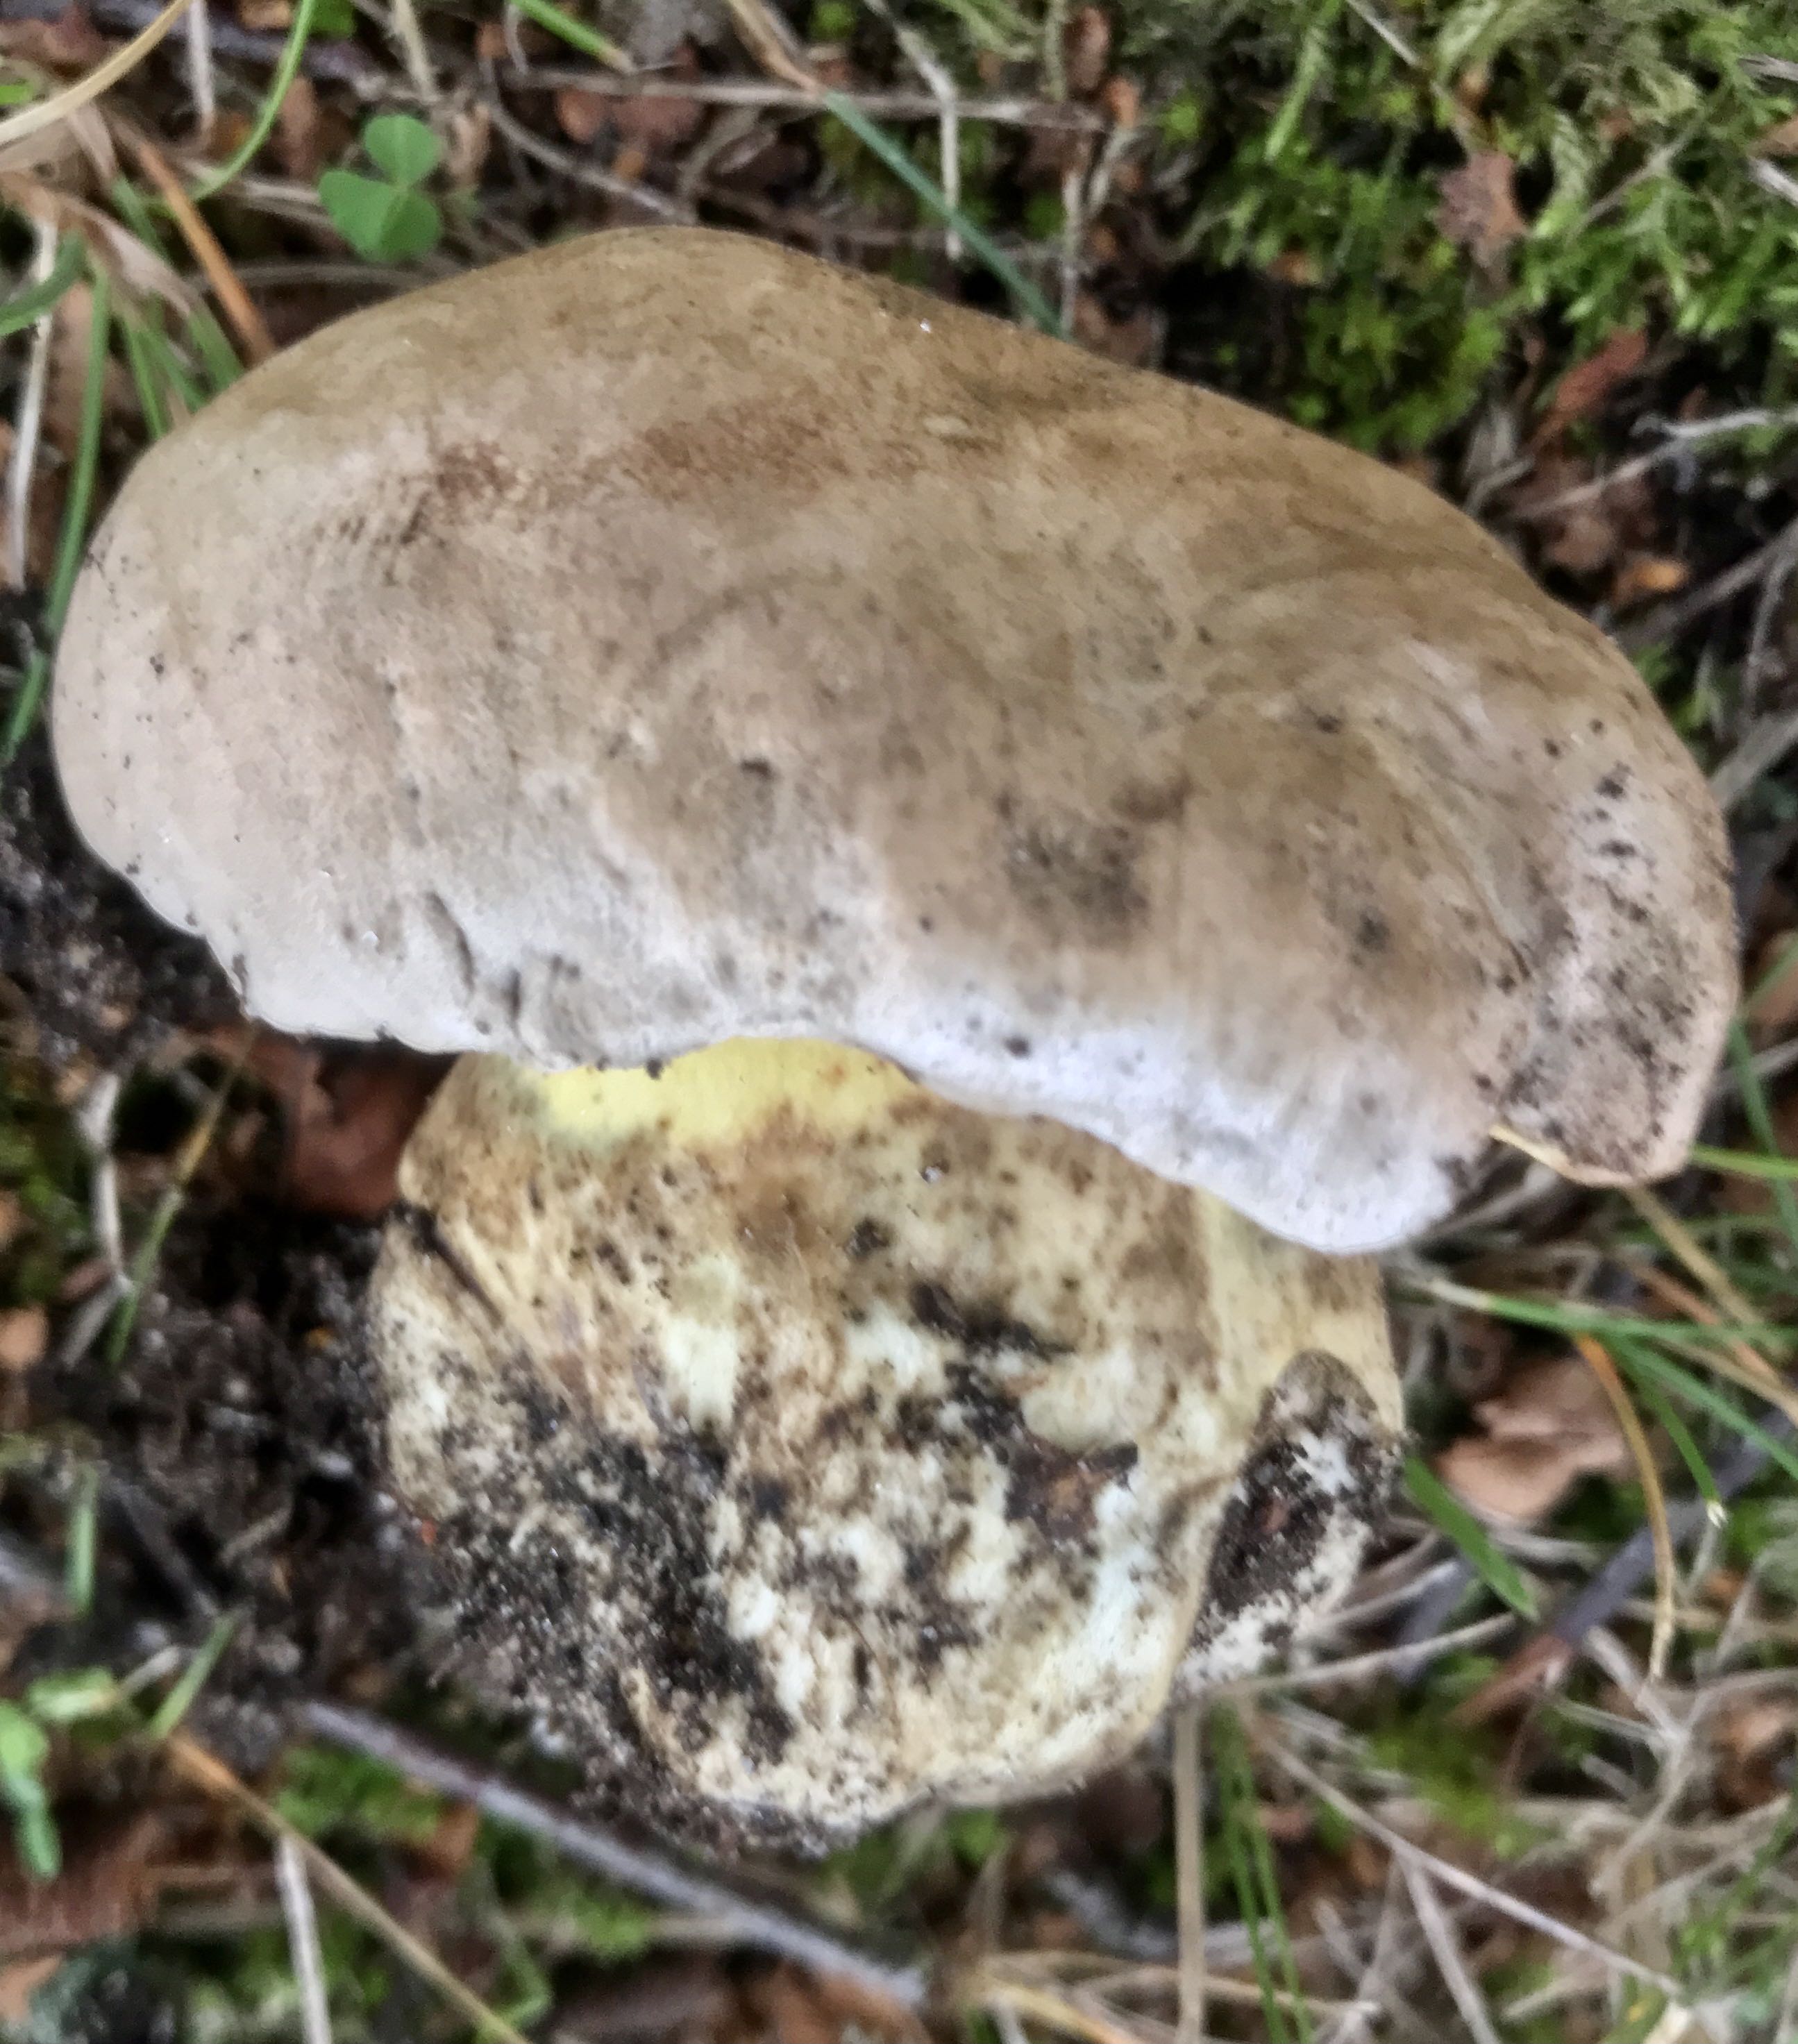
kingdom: Fungi
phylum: Basidiomycota
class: Agaricomycetes
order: Boletales
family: Boletaceae
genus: Caloboletus
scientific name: Caloboletus radicans
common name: rod-rørhat
